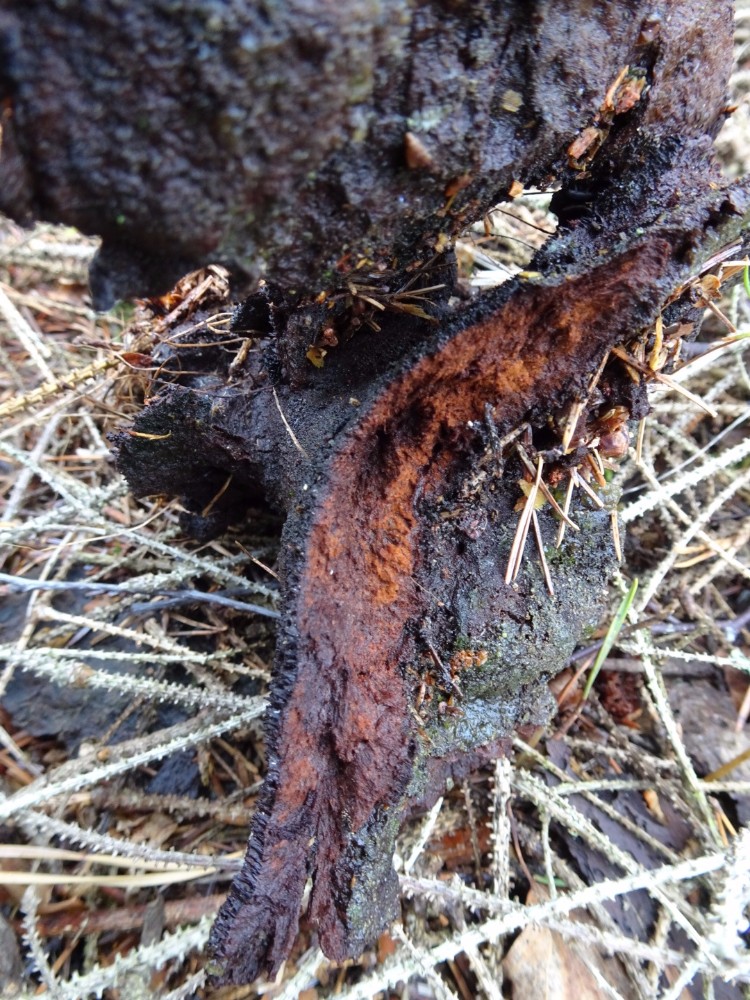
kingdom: Fungi
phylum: Basidiomycota
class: Agaricomycetes
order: Polyporales
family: Laetiporaceae
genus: Phaeolus
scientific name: Phaeolus schweinitzii
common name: brunporesvamp
